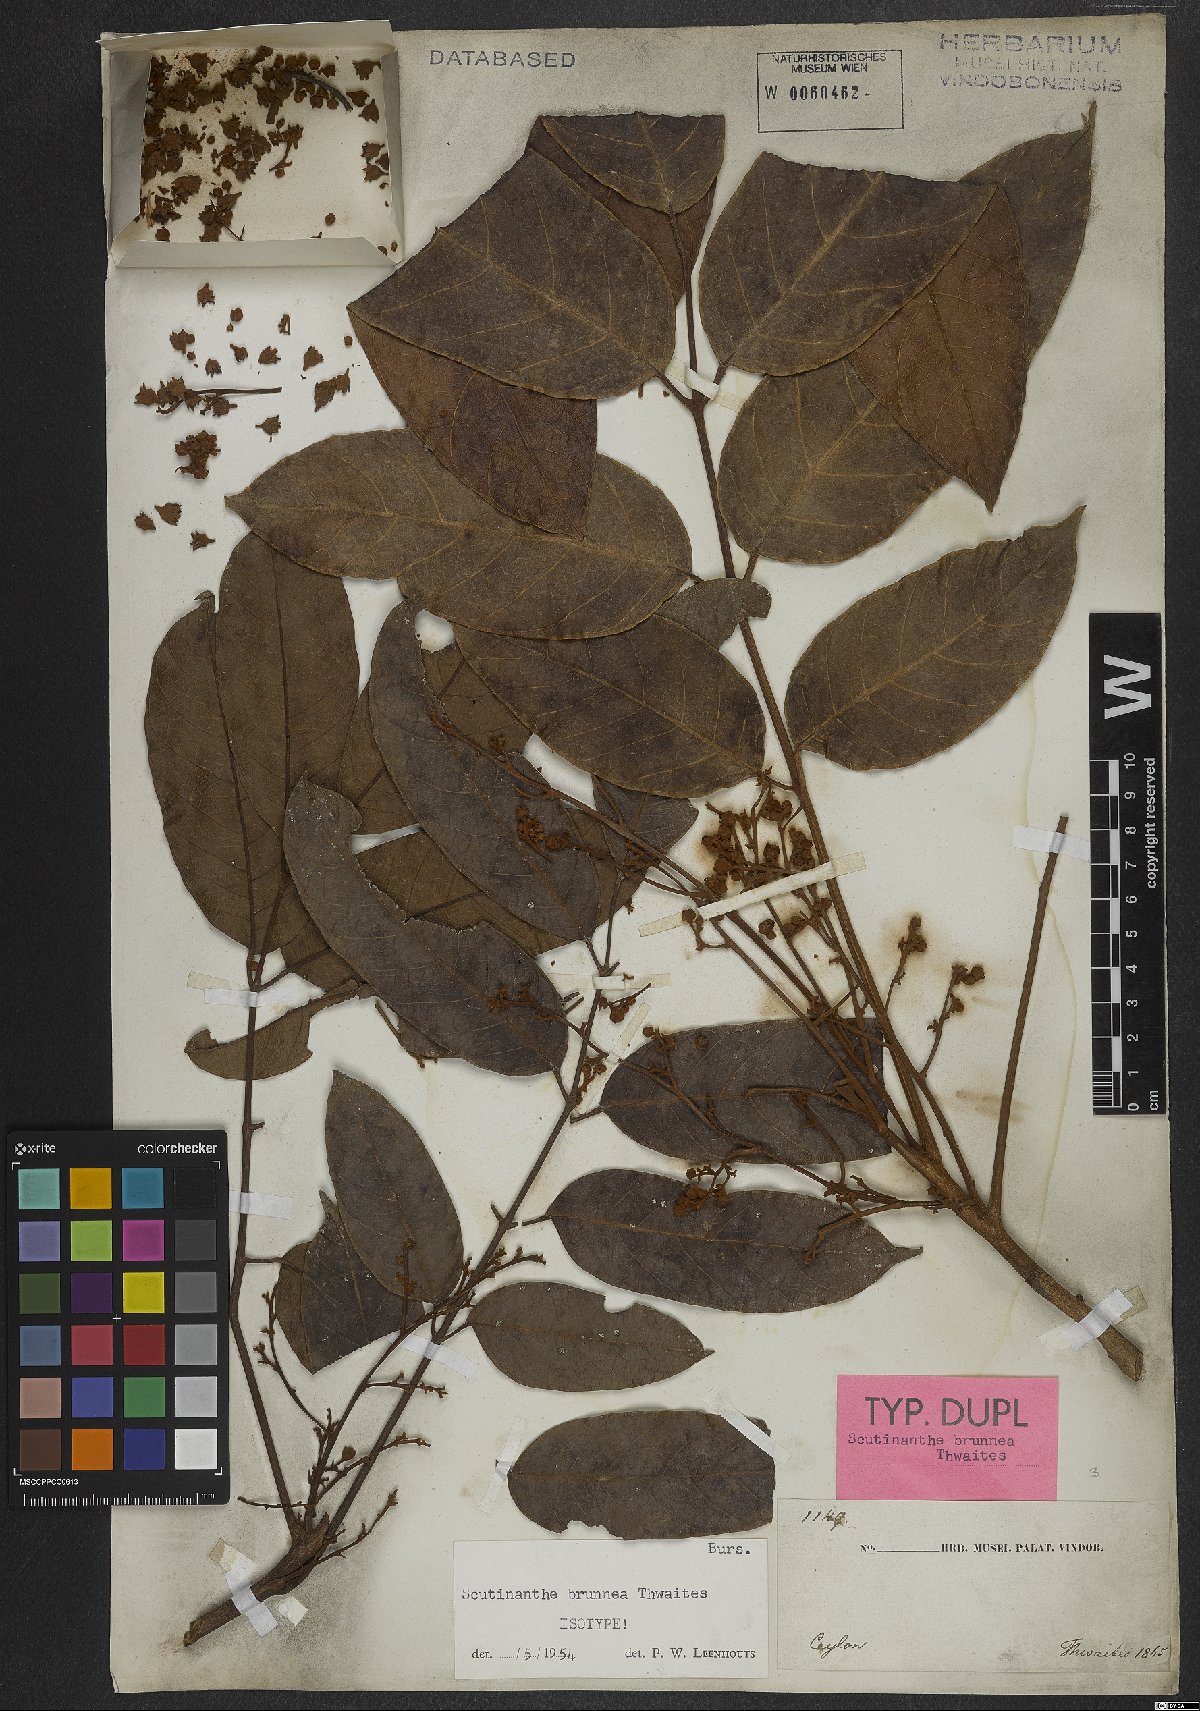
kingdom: Plantae
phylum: Tracheophyta
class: Magnoliopsida
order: Sapindales
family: Burseraceae
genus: Scutinanthe
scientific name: Scutinanthe brunnea
